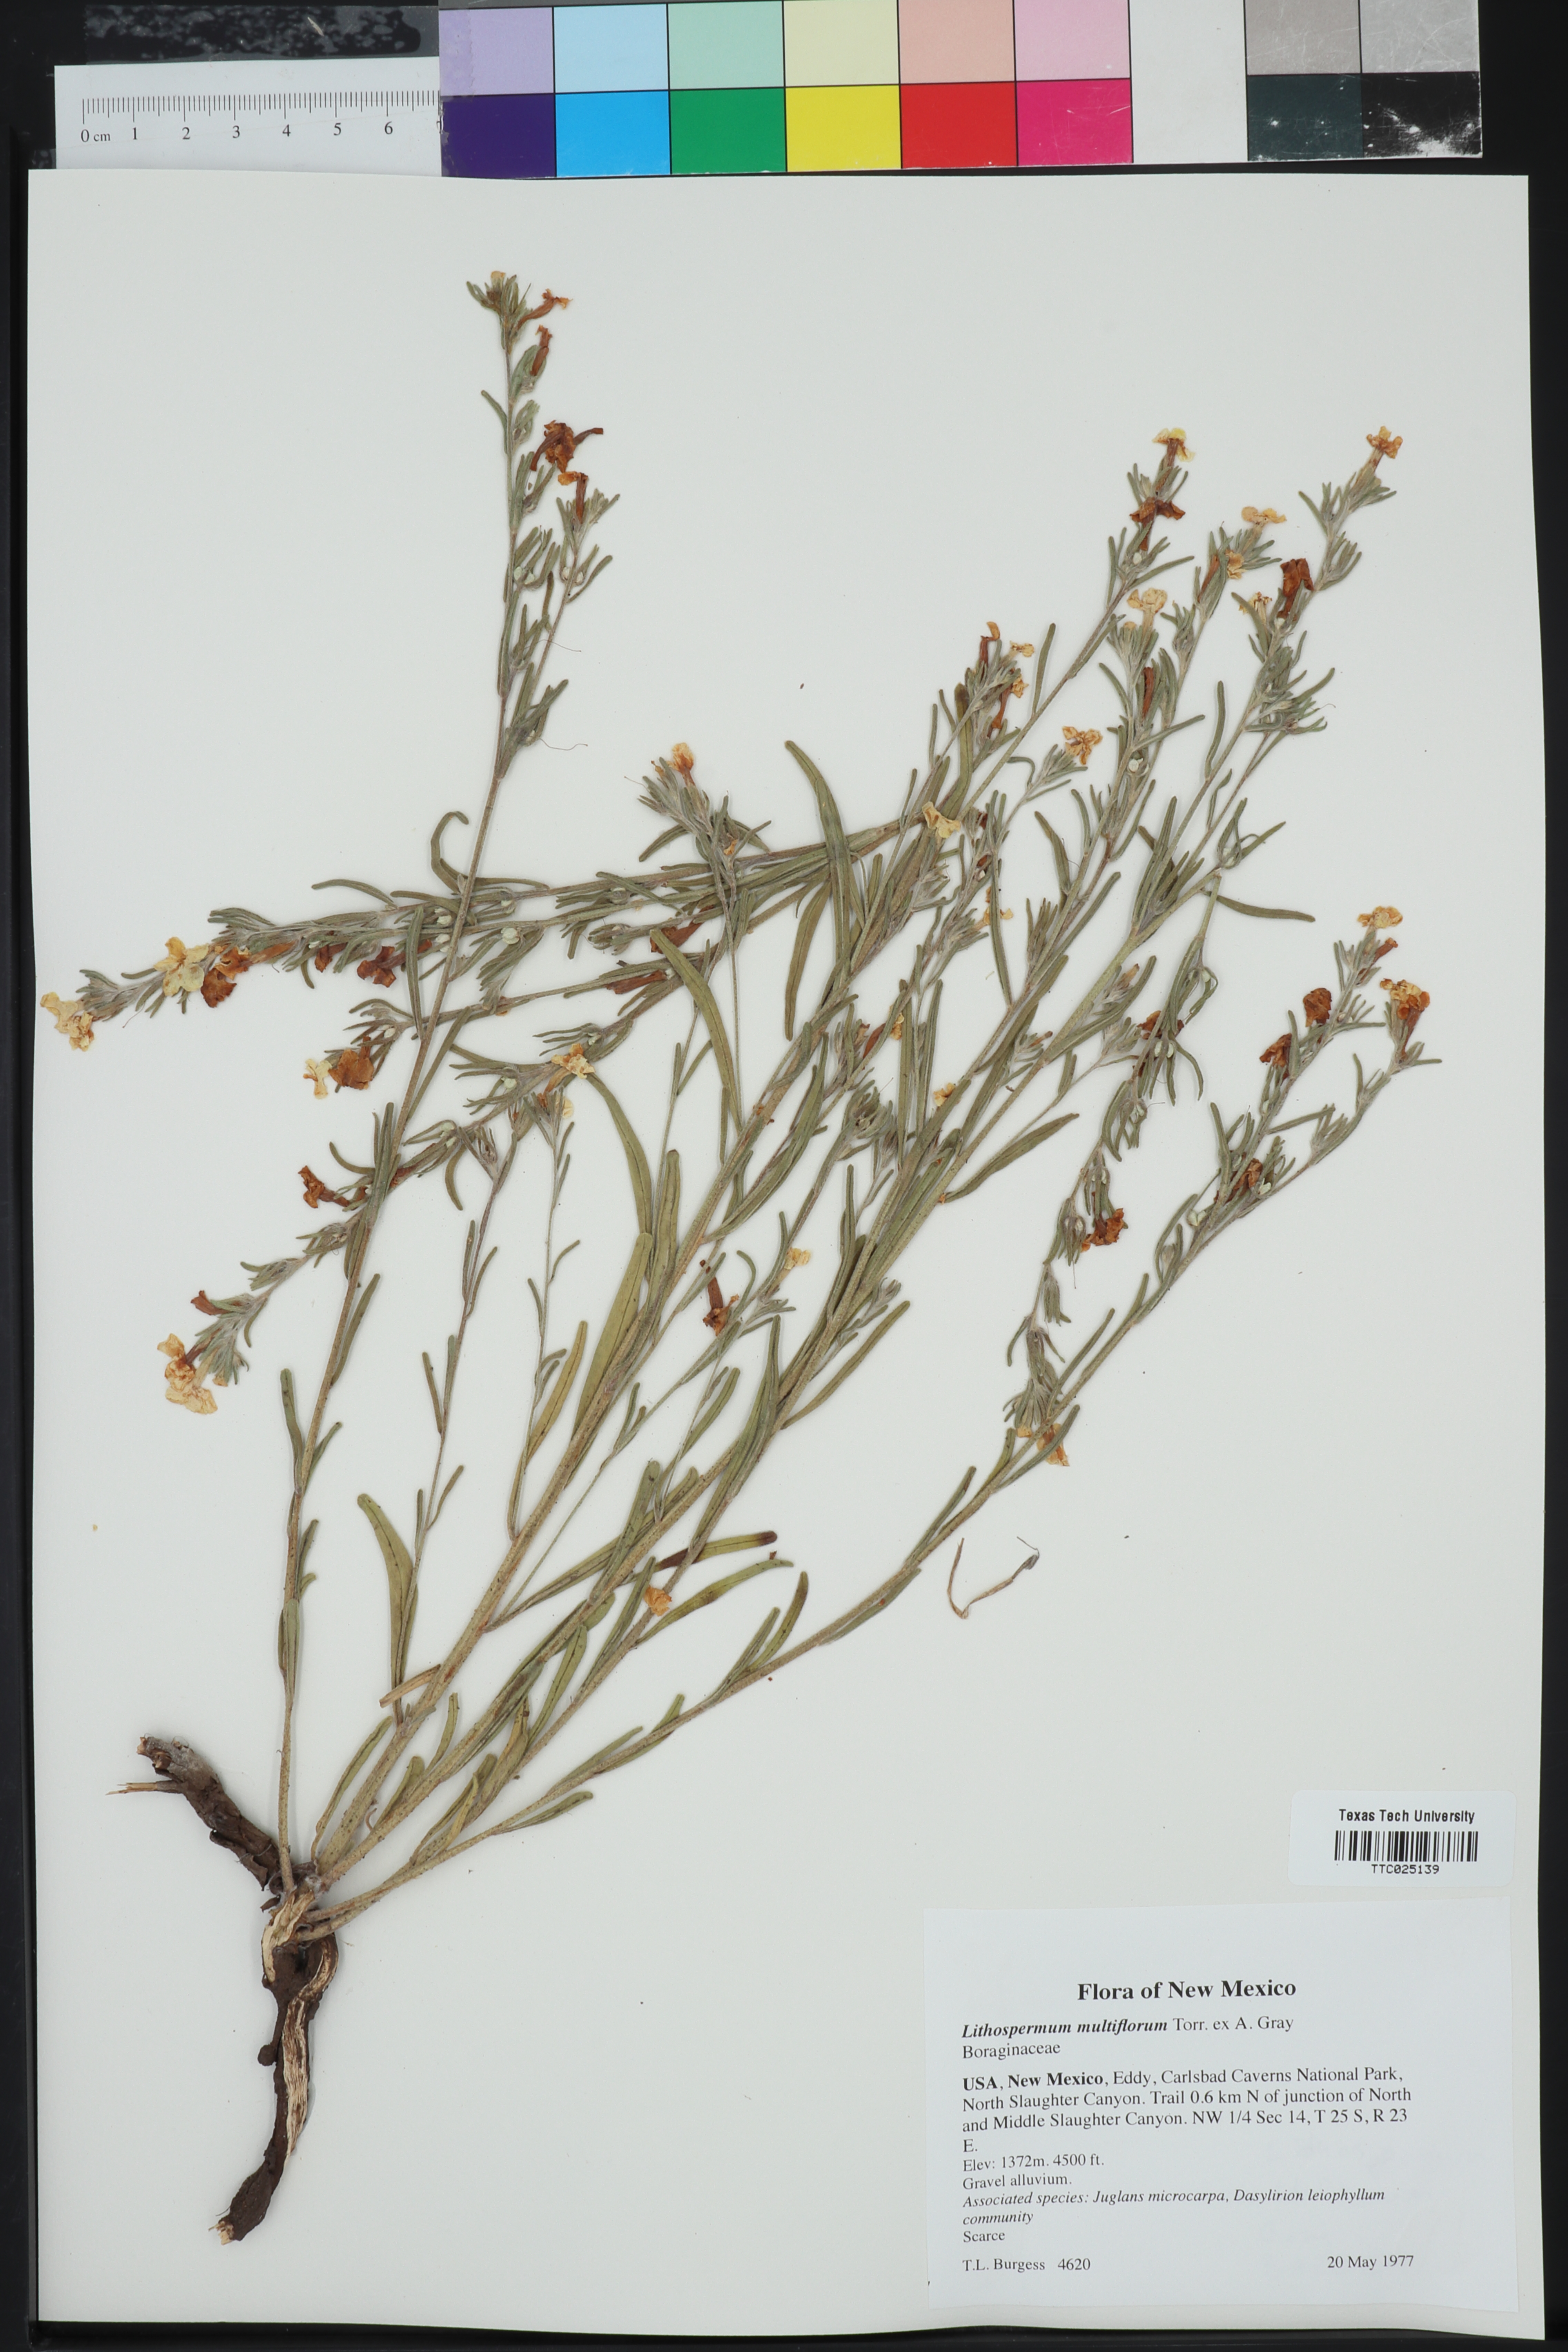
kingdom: Plantae
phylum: Tracheophyta
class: Magnoliopsida
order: Boraginales
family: Boraginaceae
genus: Lithospermum
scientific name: Lithospermum multiflorum
